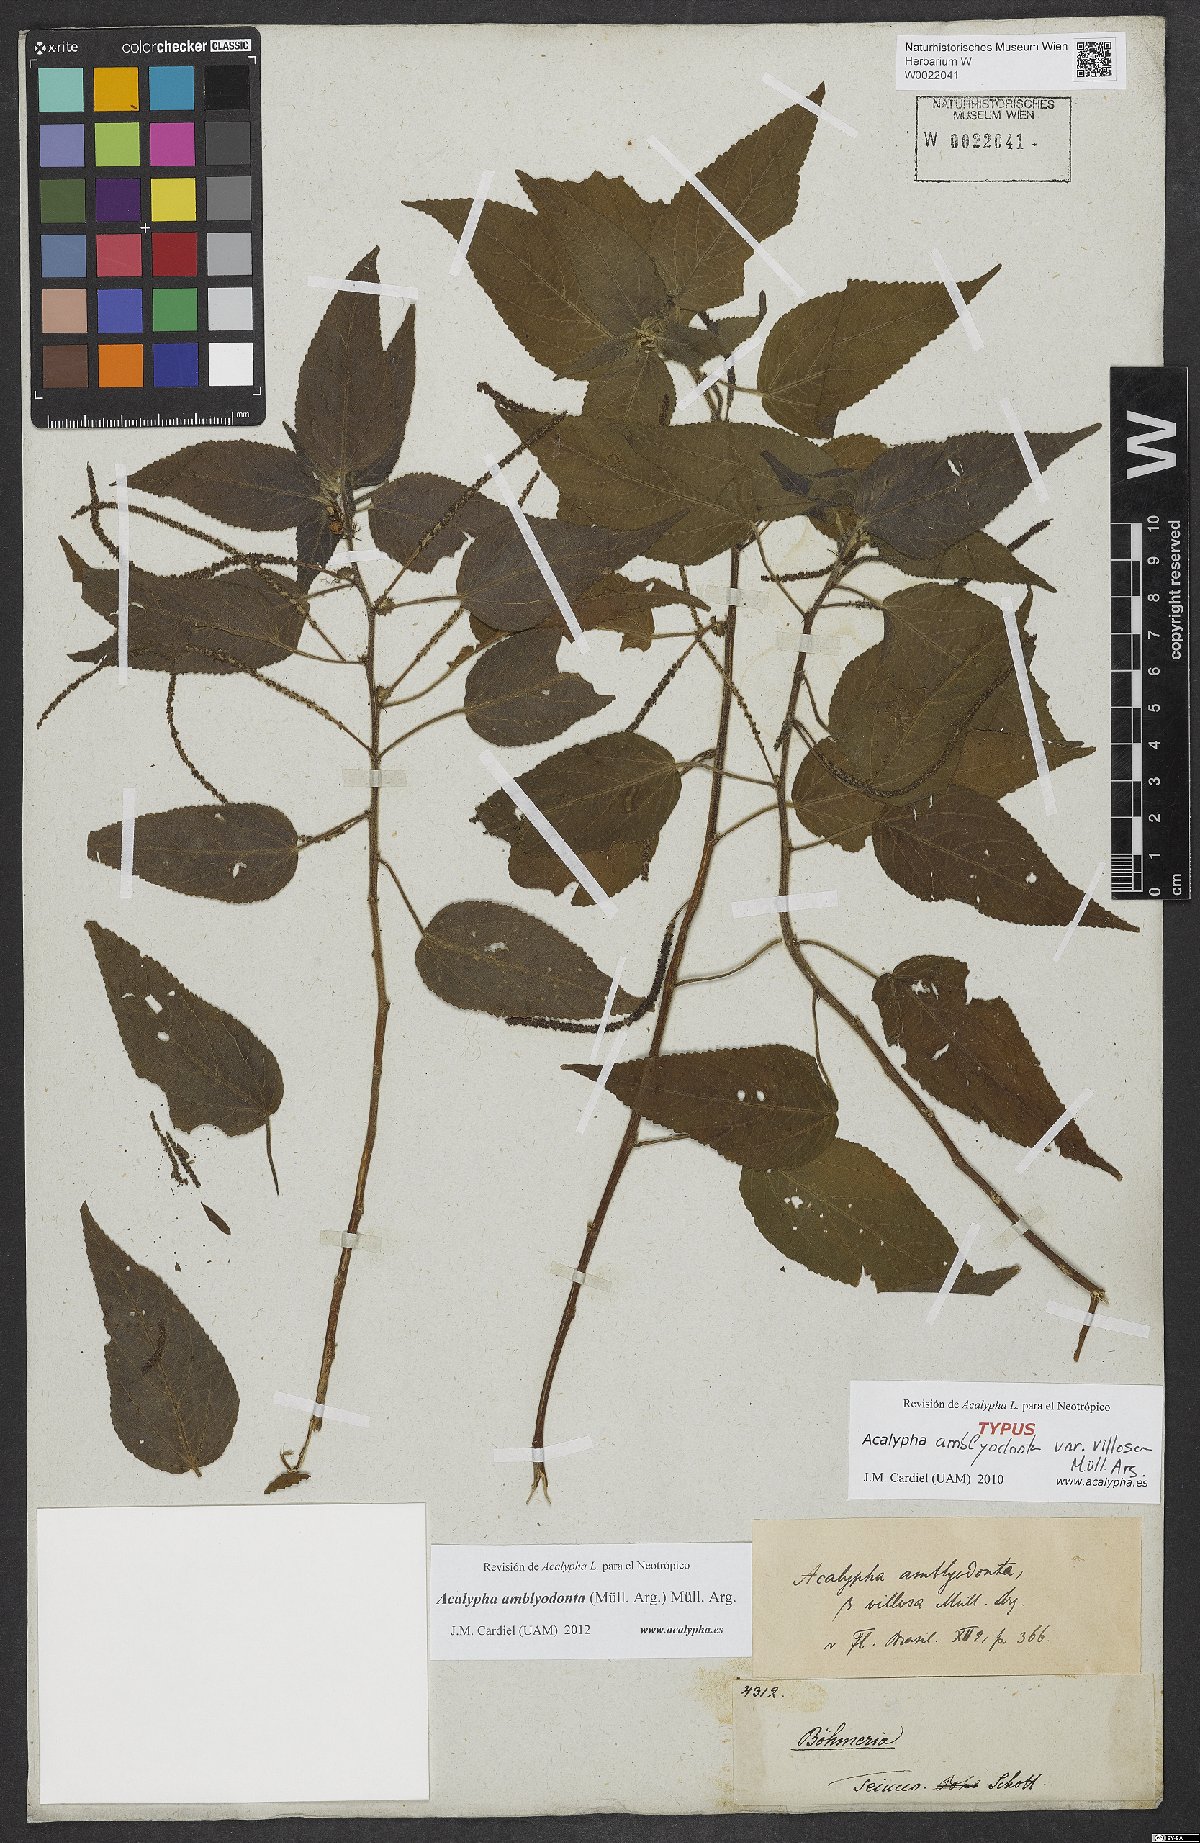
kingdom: Plantae
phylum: Tracheophyta
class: Magnoliopsida
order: Malpighiales
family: Euphorbiaceae
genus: Acalypha
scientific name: Acalypha amblyodonta
